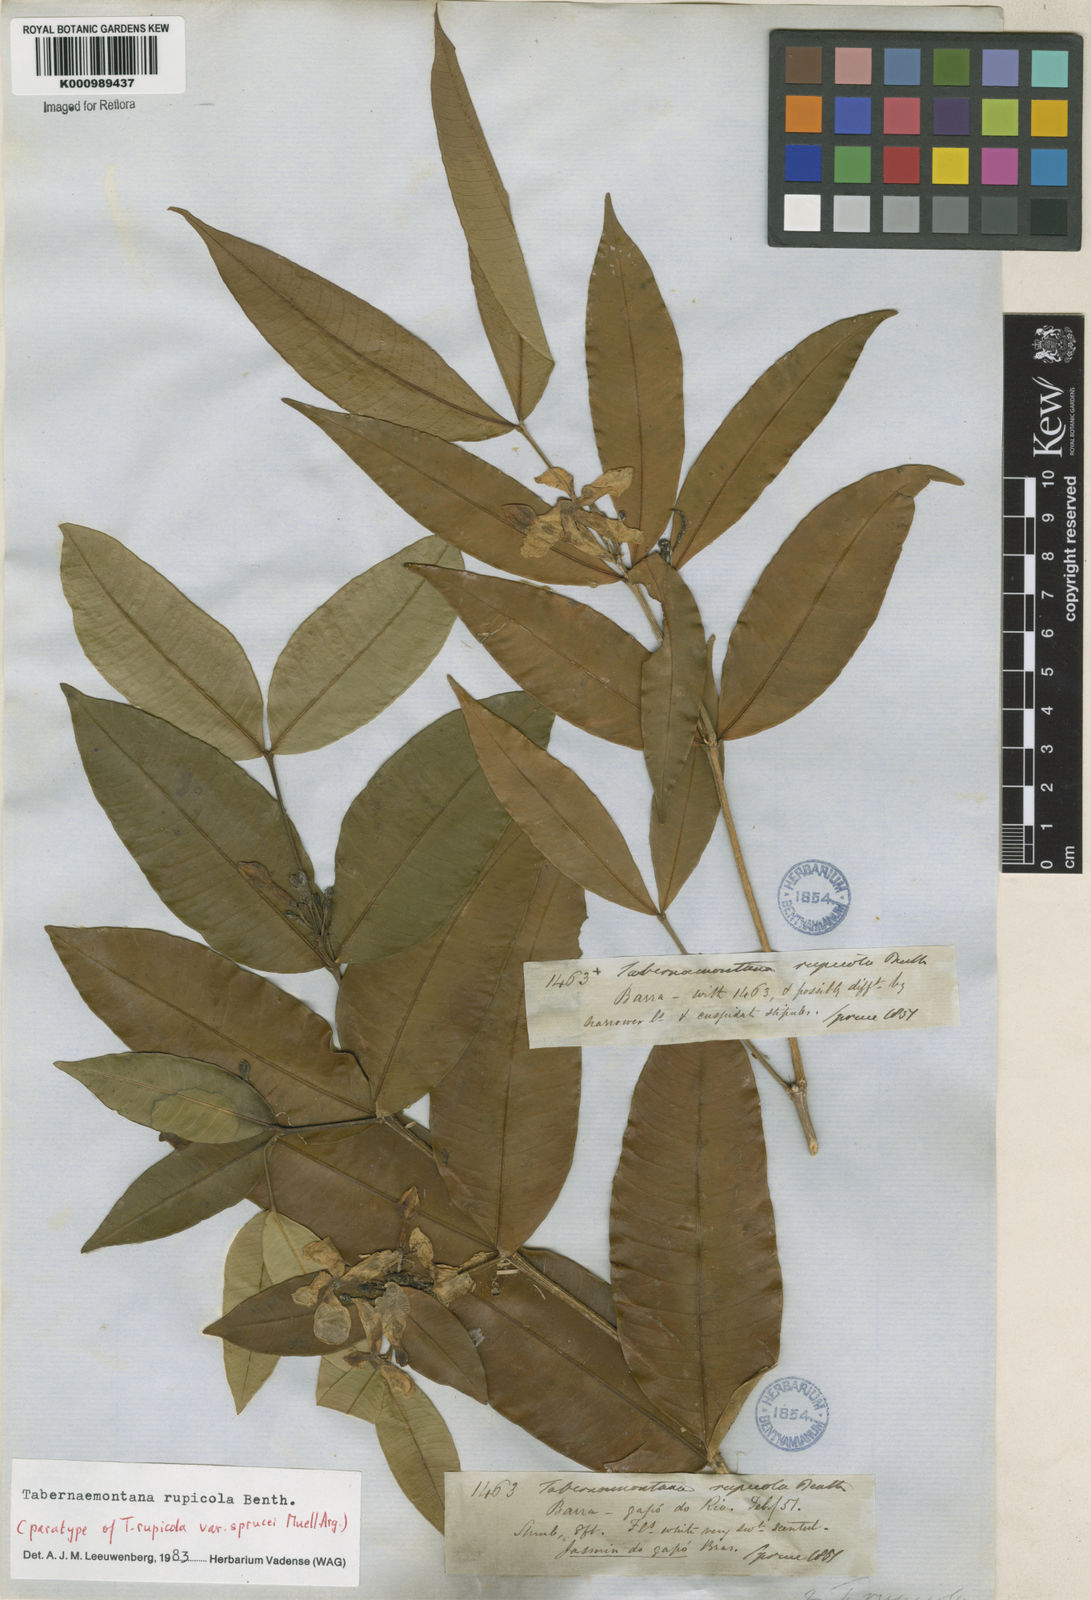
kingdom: Plantae
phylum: Tracheophyta
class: Magnoliopsida
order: Gentianales
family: Apocynaceae
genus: Tabernaemontana
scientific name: Tabernaemontana rupicola
